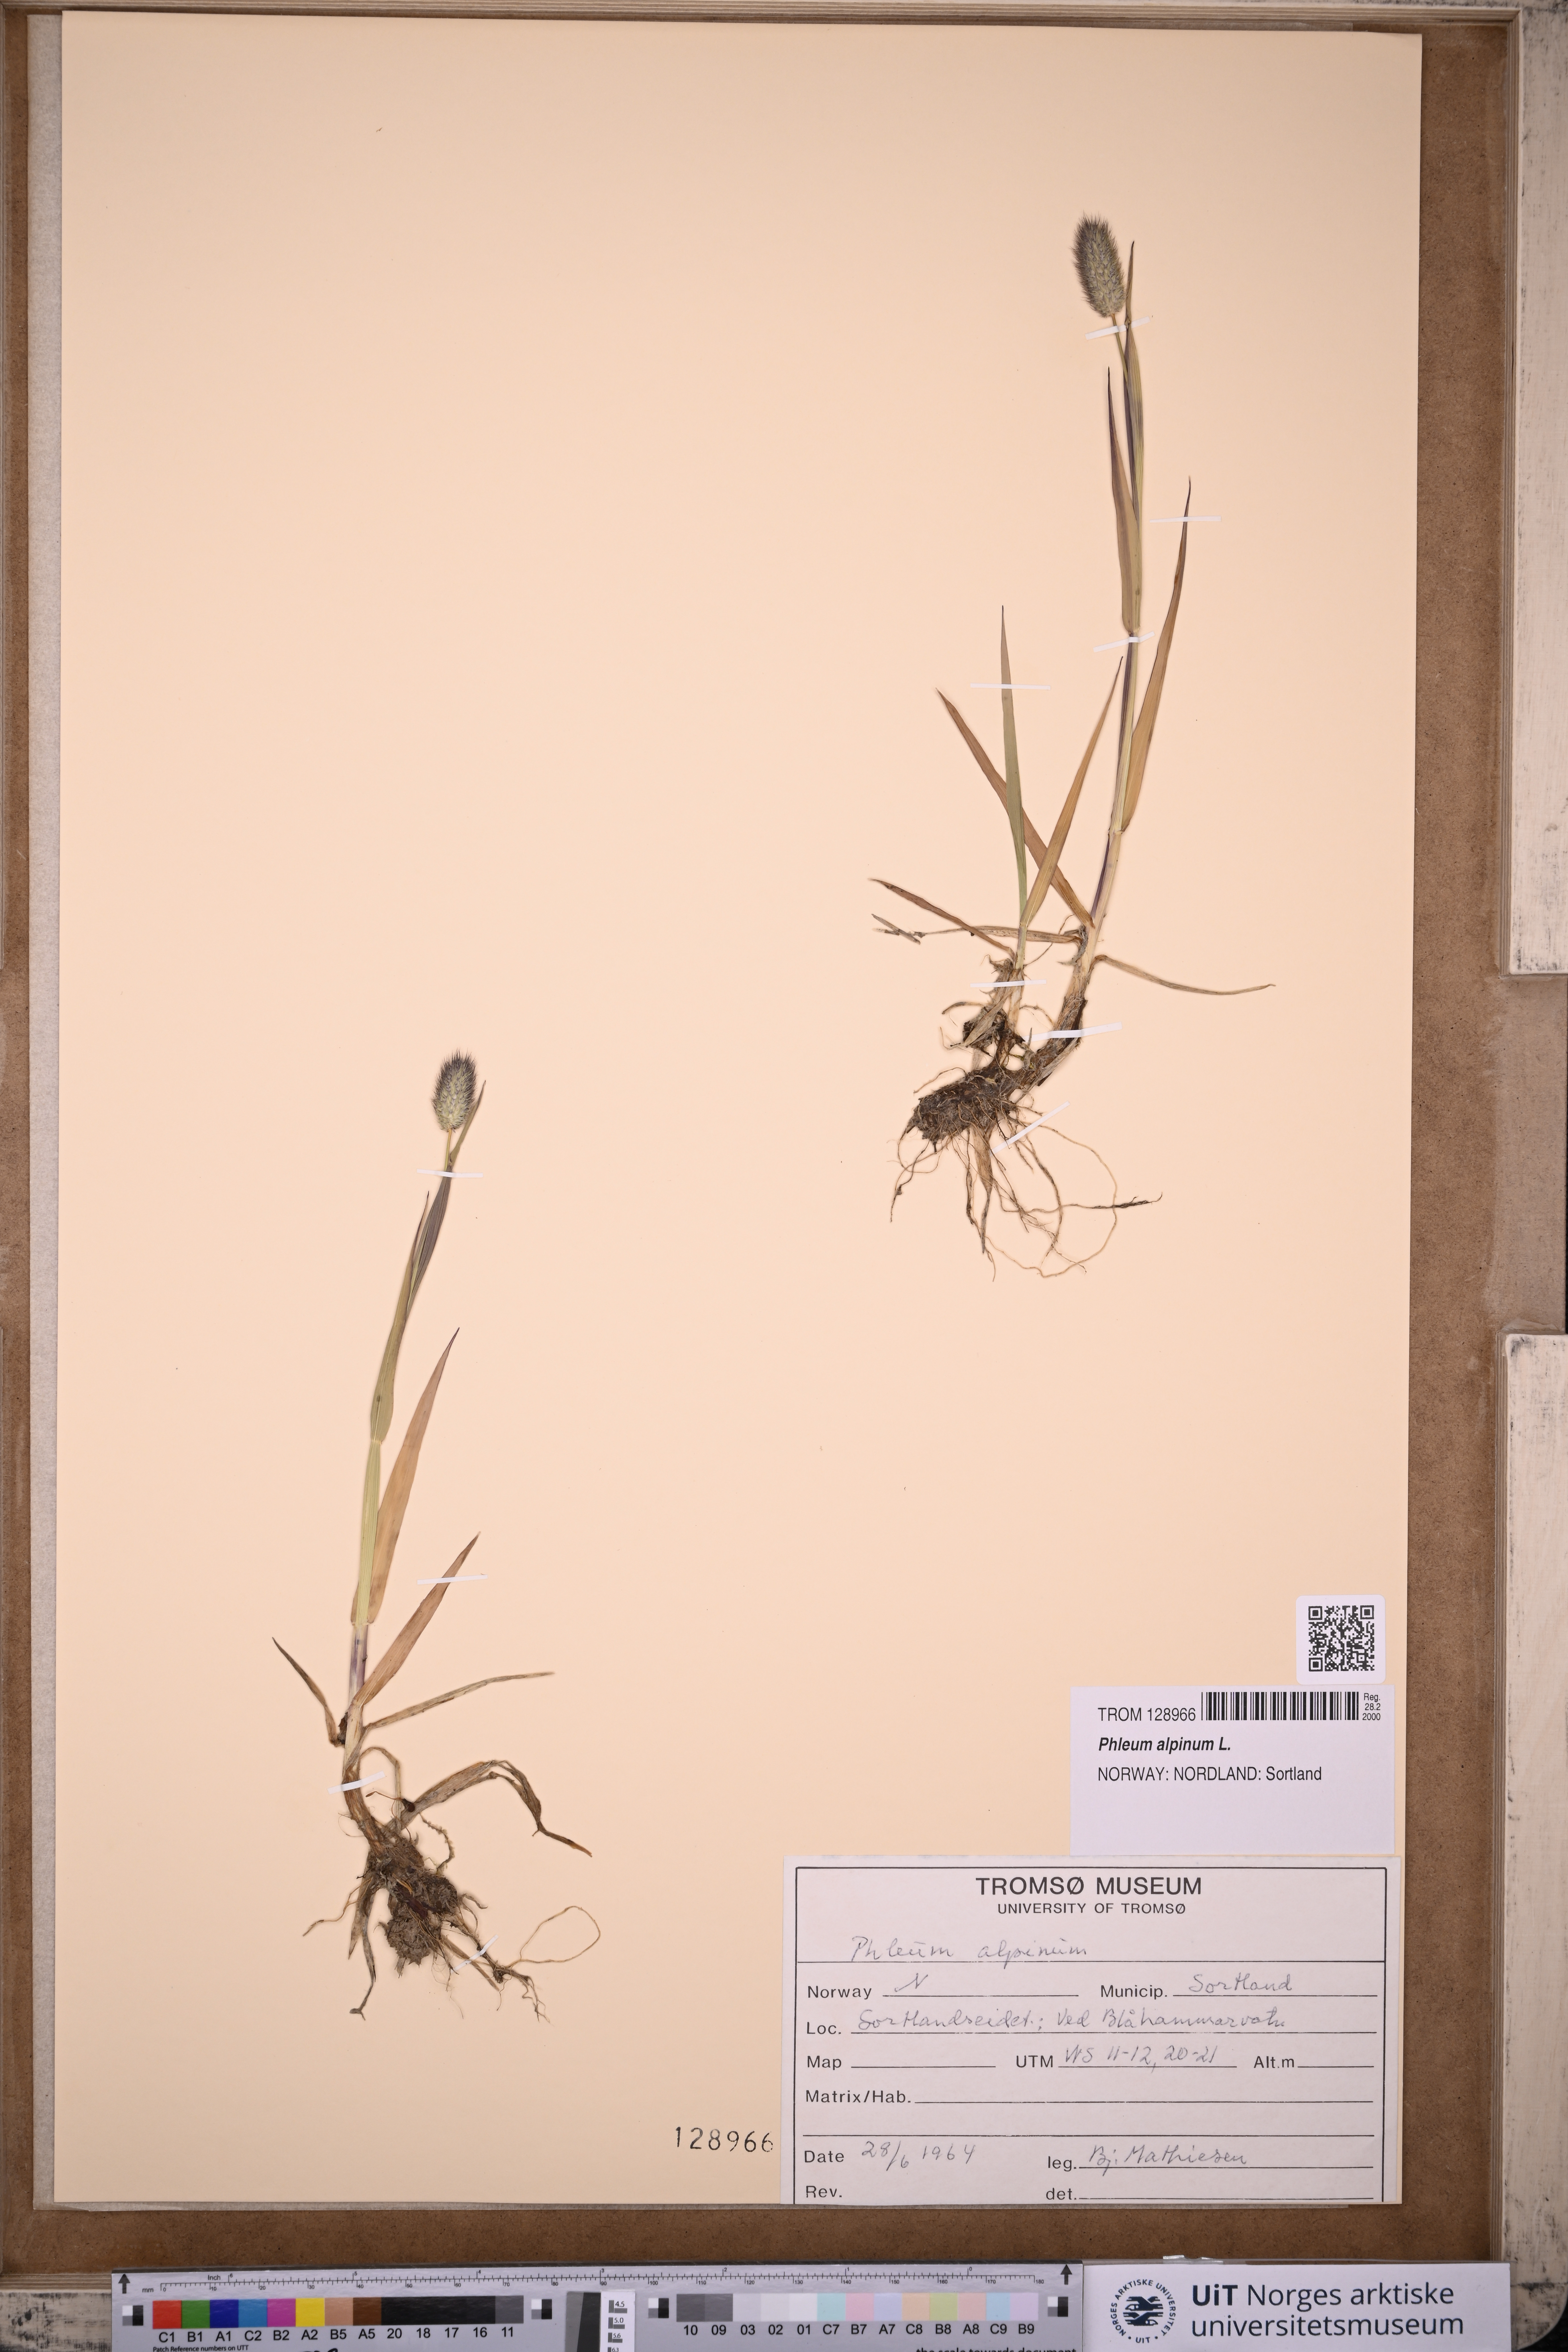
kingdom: Plantae
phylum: Tracheophyta
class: Liliopsida
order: Poales
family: Poaceae
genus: Phleum
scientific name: Phleum alpinum
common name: Alpine cat's-tail
